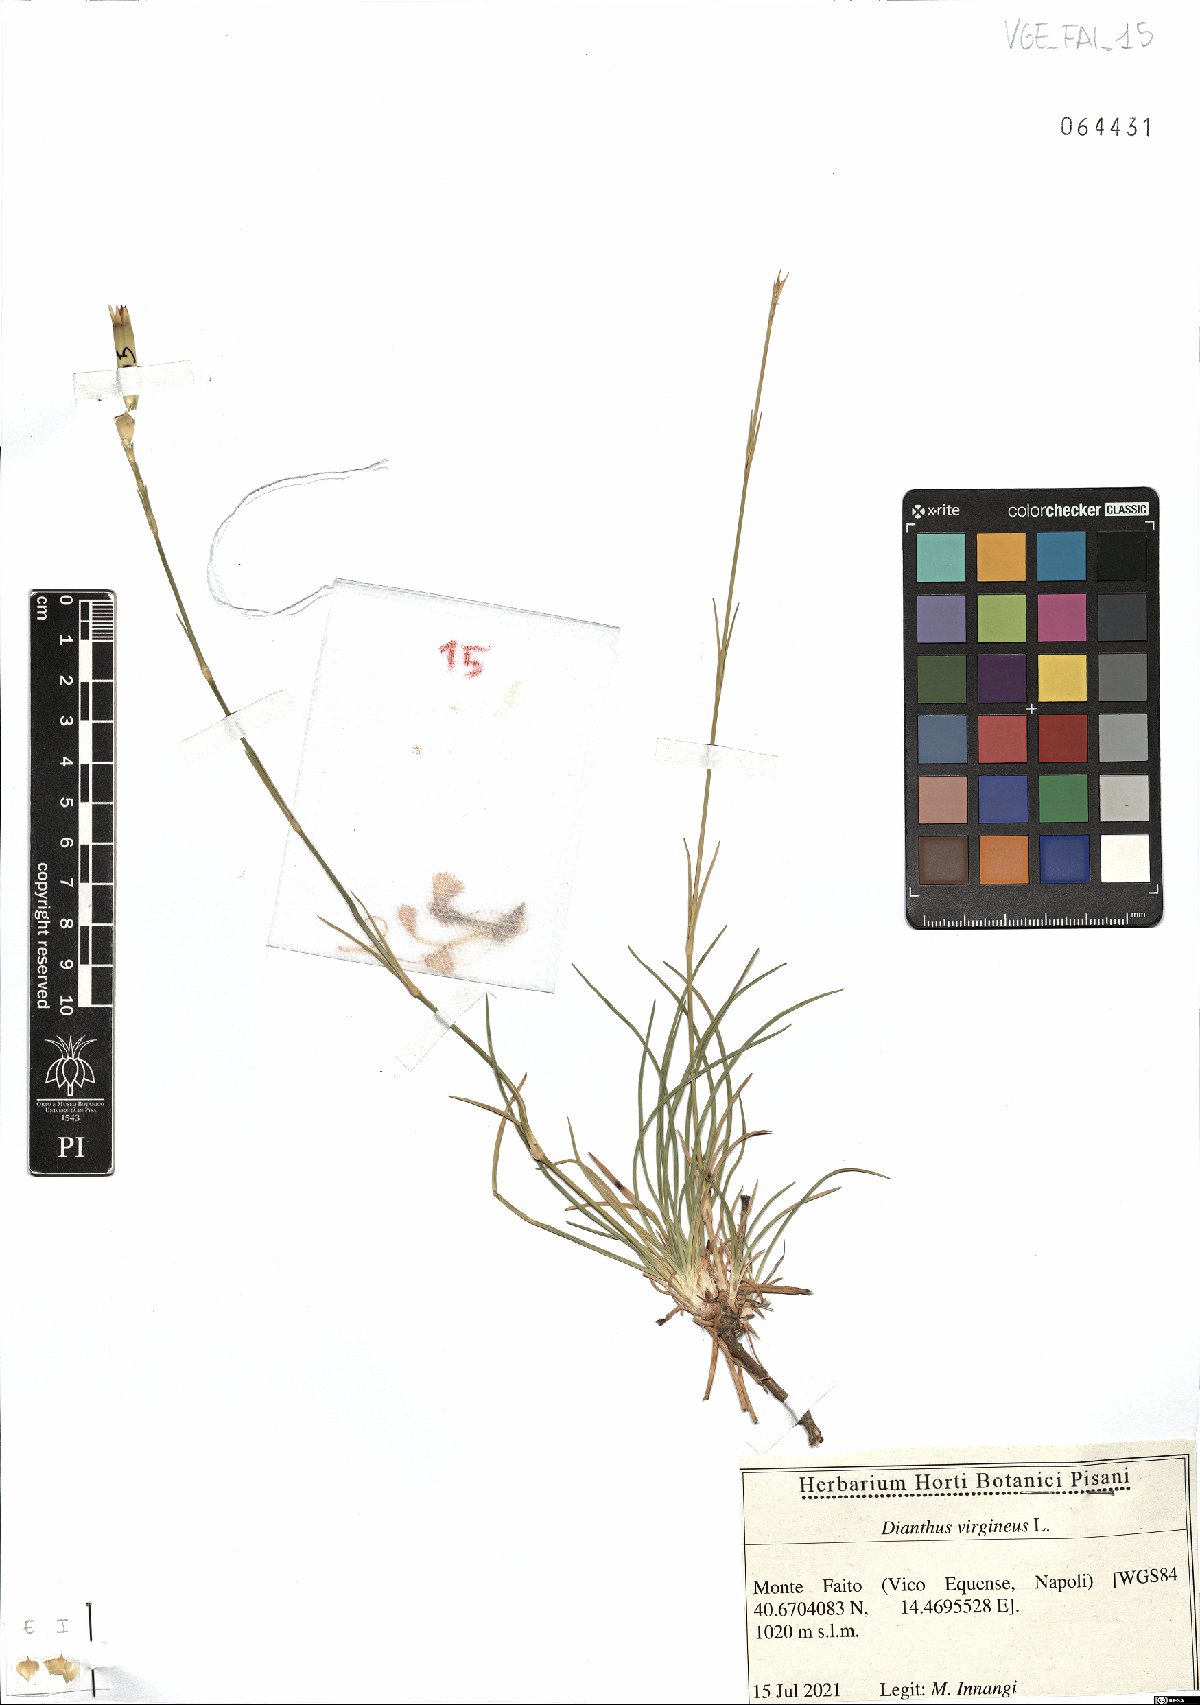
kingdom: Plantae
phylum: Tracheophyta
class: Magnoliopsida
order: Caryophyllales
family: Caryophyllaceae
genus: Dianthus
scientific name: Dianthus virgineus
